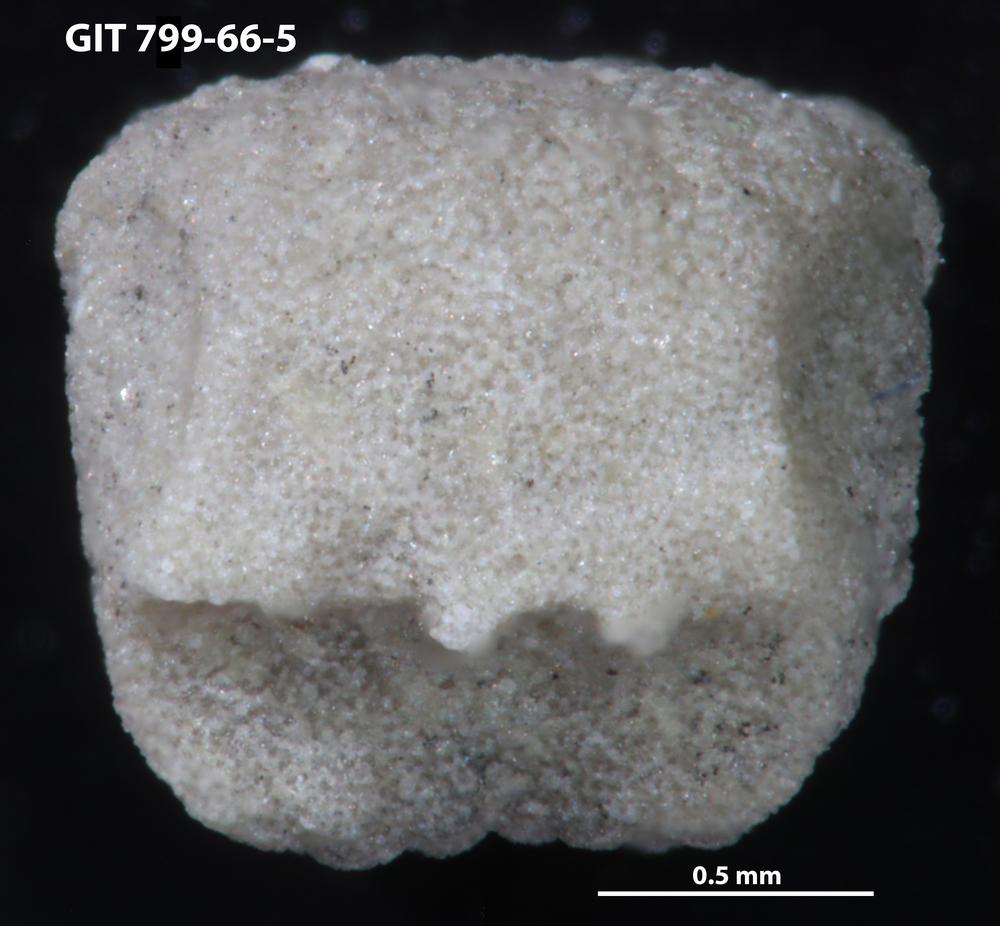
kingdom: Animalia
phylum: Echinodermata
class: Crinoidea
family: Cyclocystoididae
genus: Cyclocystoides
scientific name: Cyclocystoides
